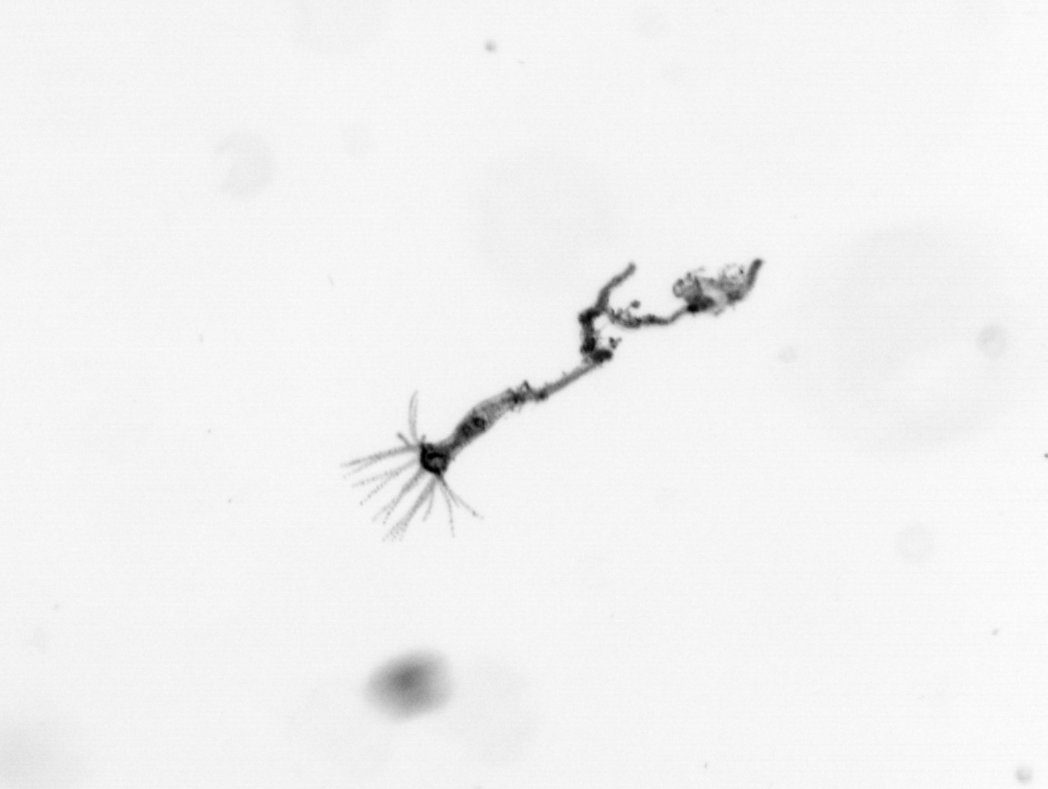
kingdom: Animalia
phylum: Cnidaria
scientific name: Cnidaria
